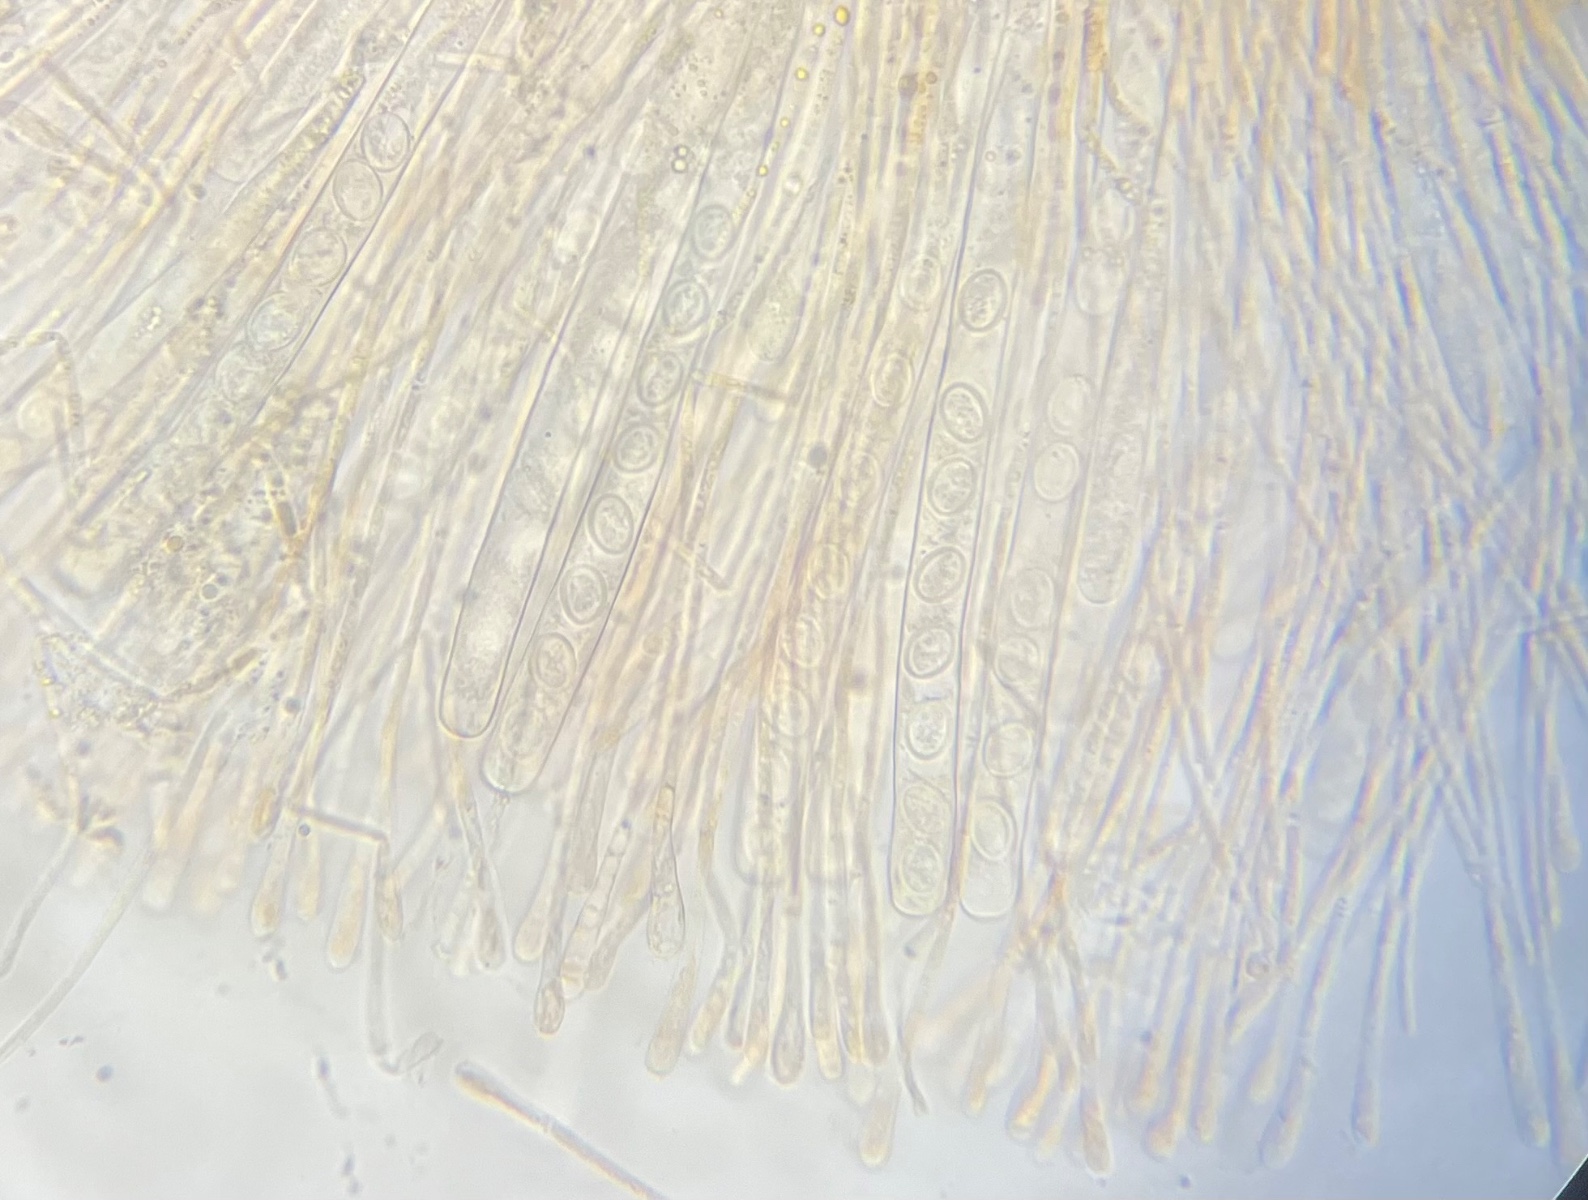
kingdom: Fungi
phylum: Ascomycota
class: Pezizomycetes
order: Pezizales
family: Pyronemataceae
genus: Scutellinia
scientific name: Scutellinia
